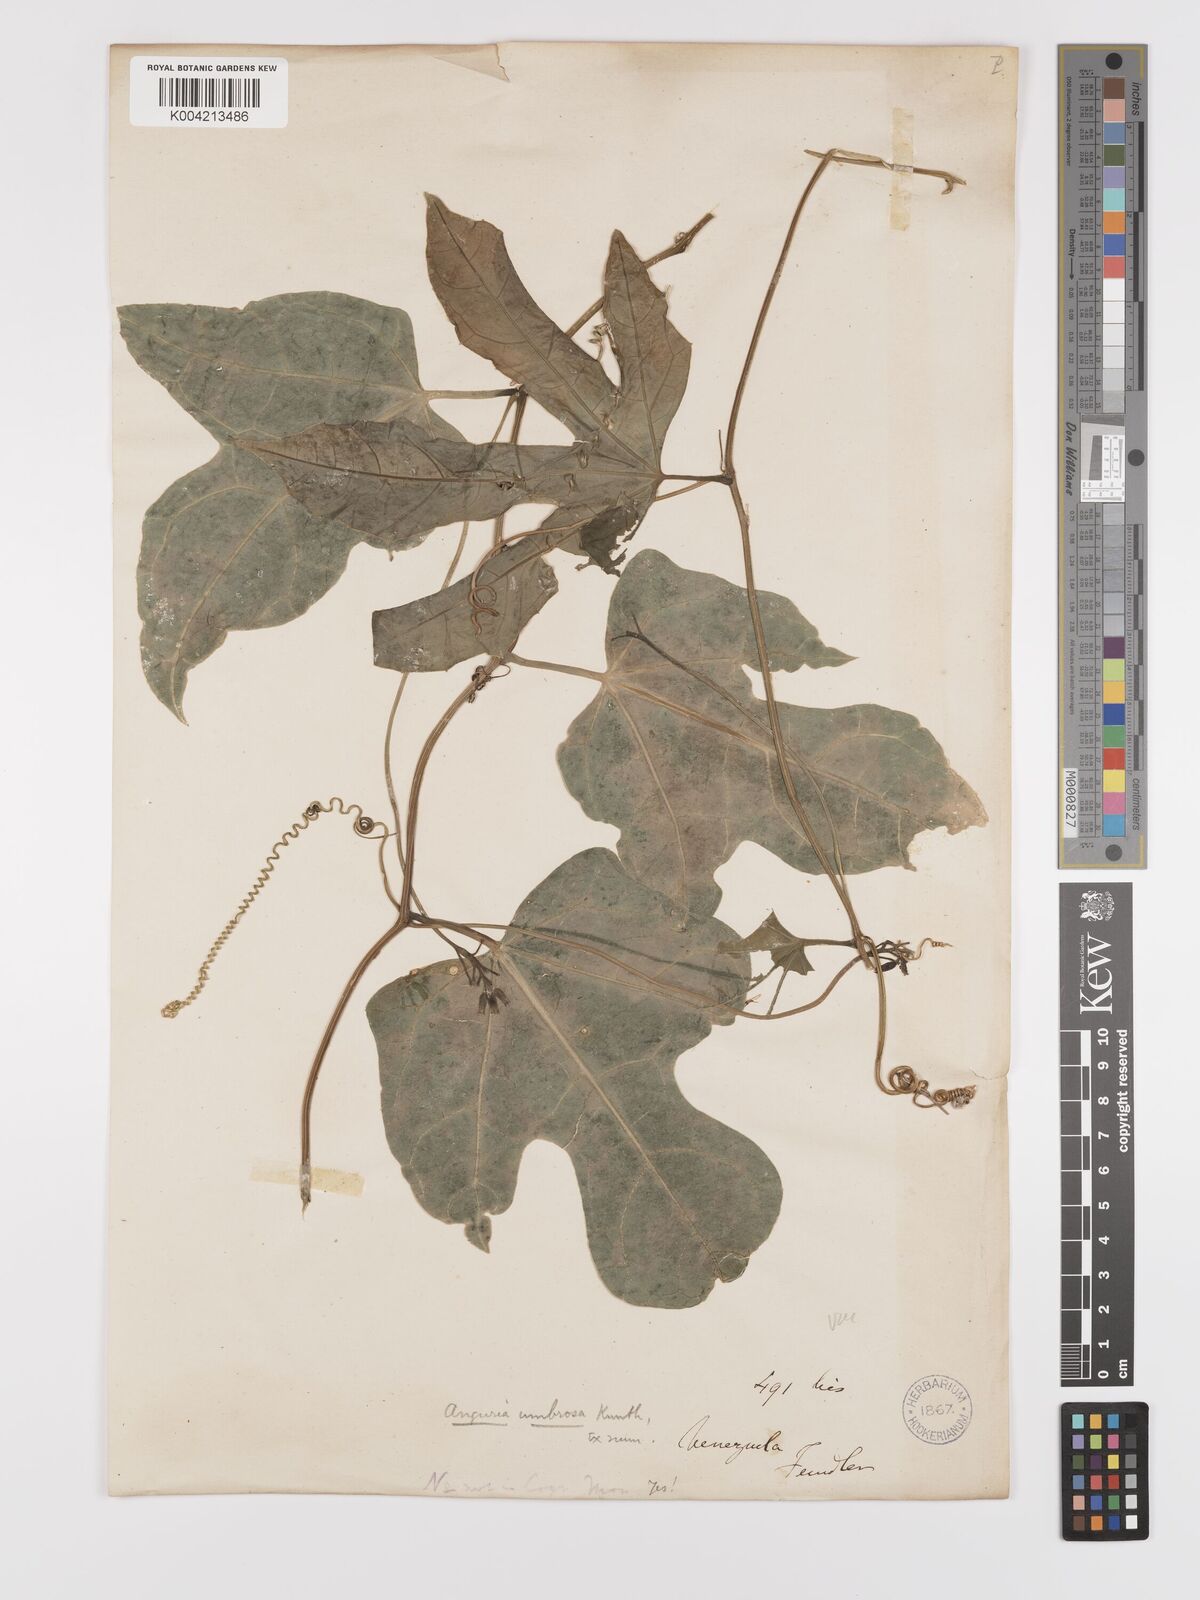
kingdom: Plantae
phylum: Tracheophyta
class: Magnoliopsida
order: Cucurbitales
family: Cucurbitaceae
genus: Psiguria
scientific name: Psiguria racemosa
